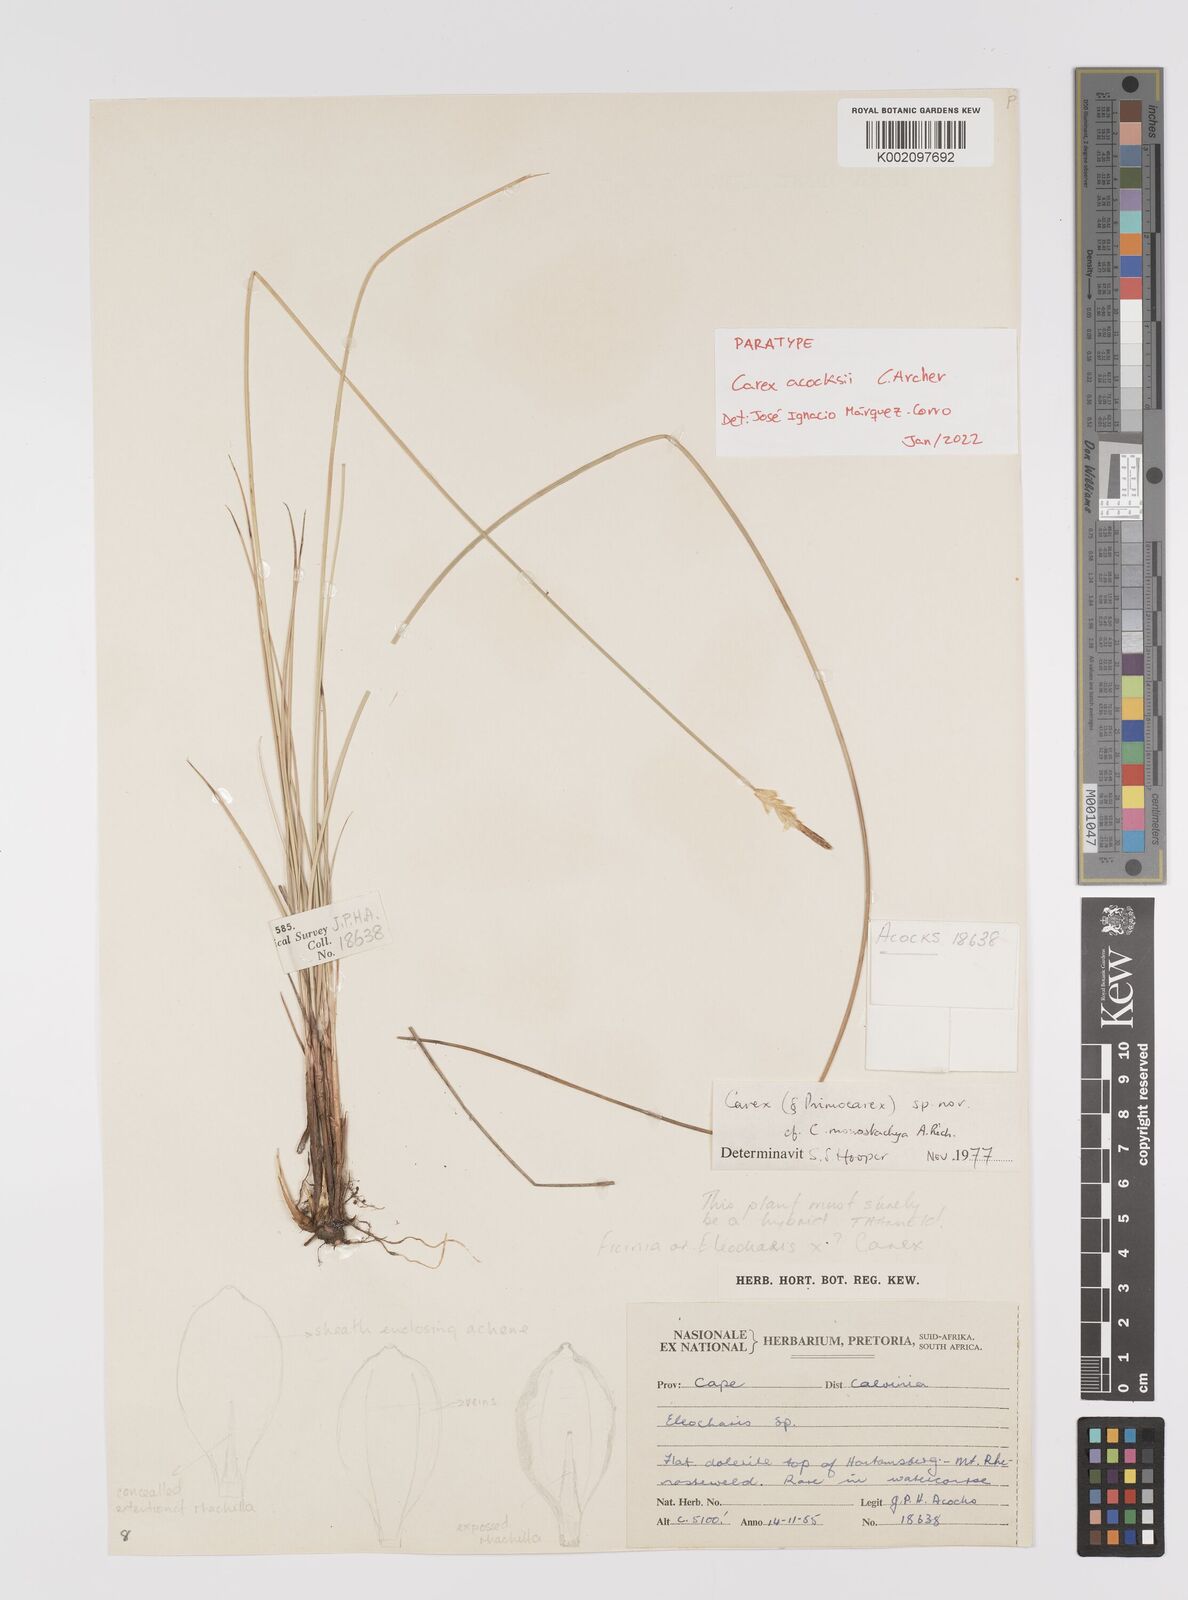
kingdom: Plantae
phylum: Tracheophyta
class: Liliopsida
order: Poales
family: Cyperaceae
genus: Carex
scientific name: Carex acocksii
